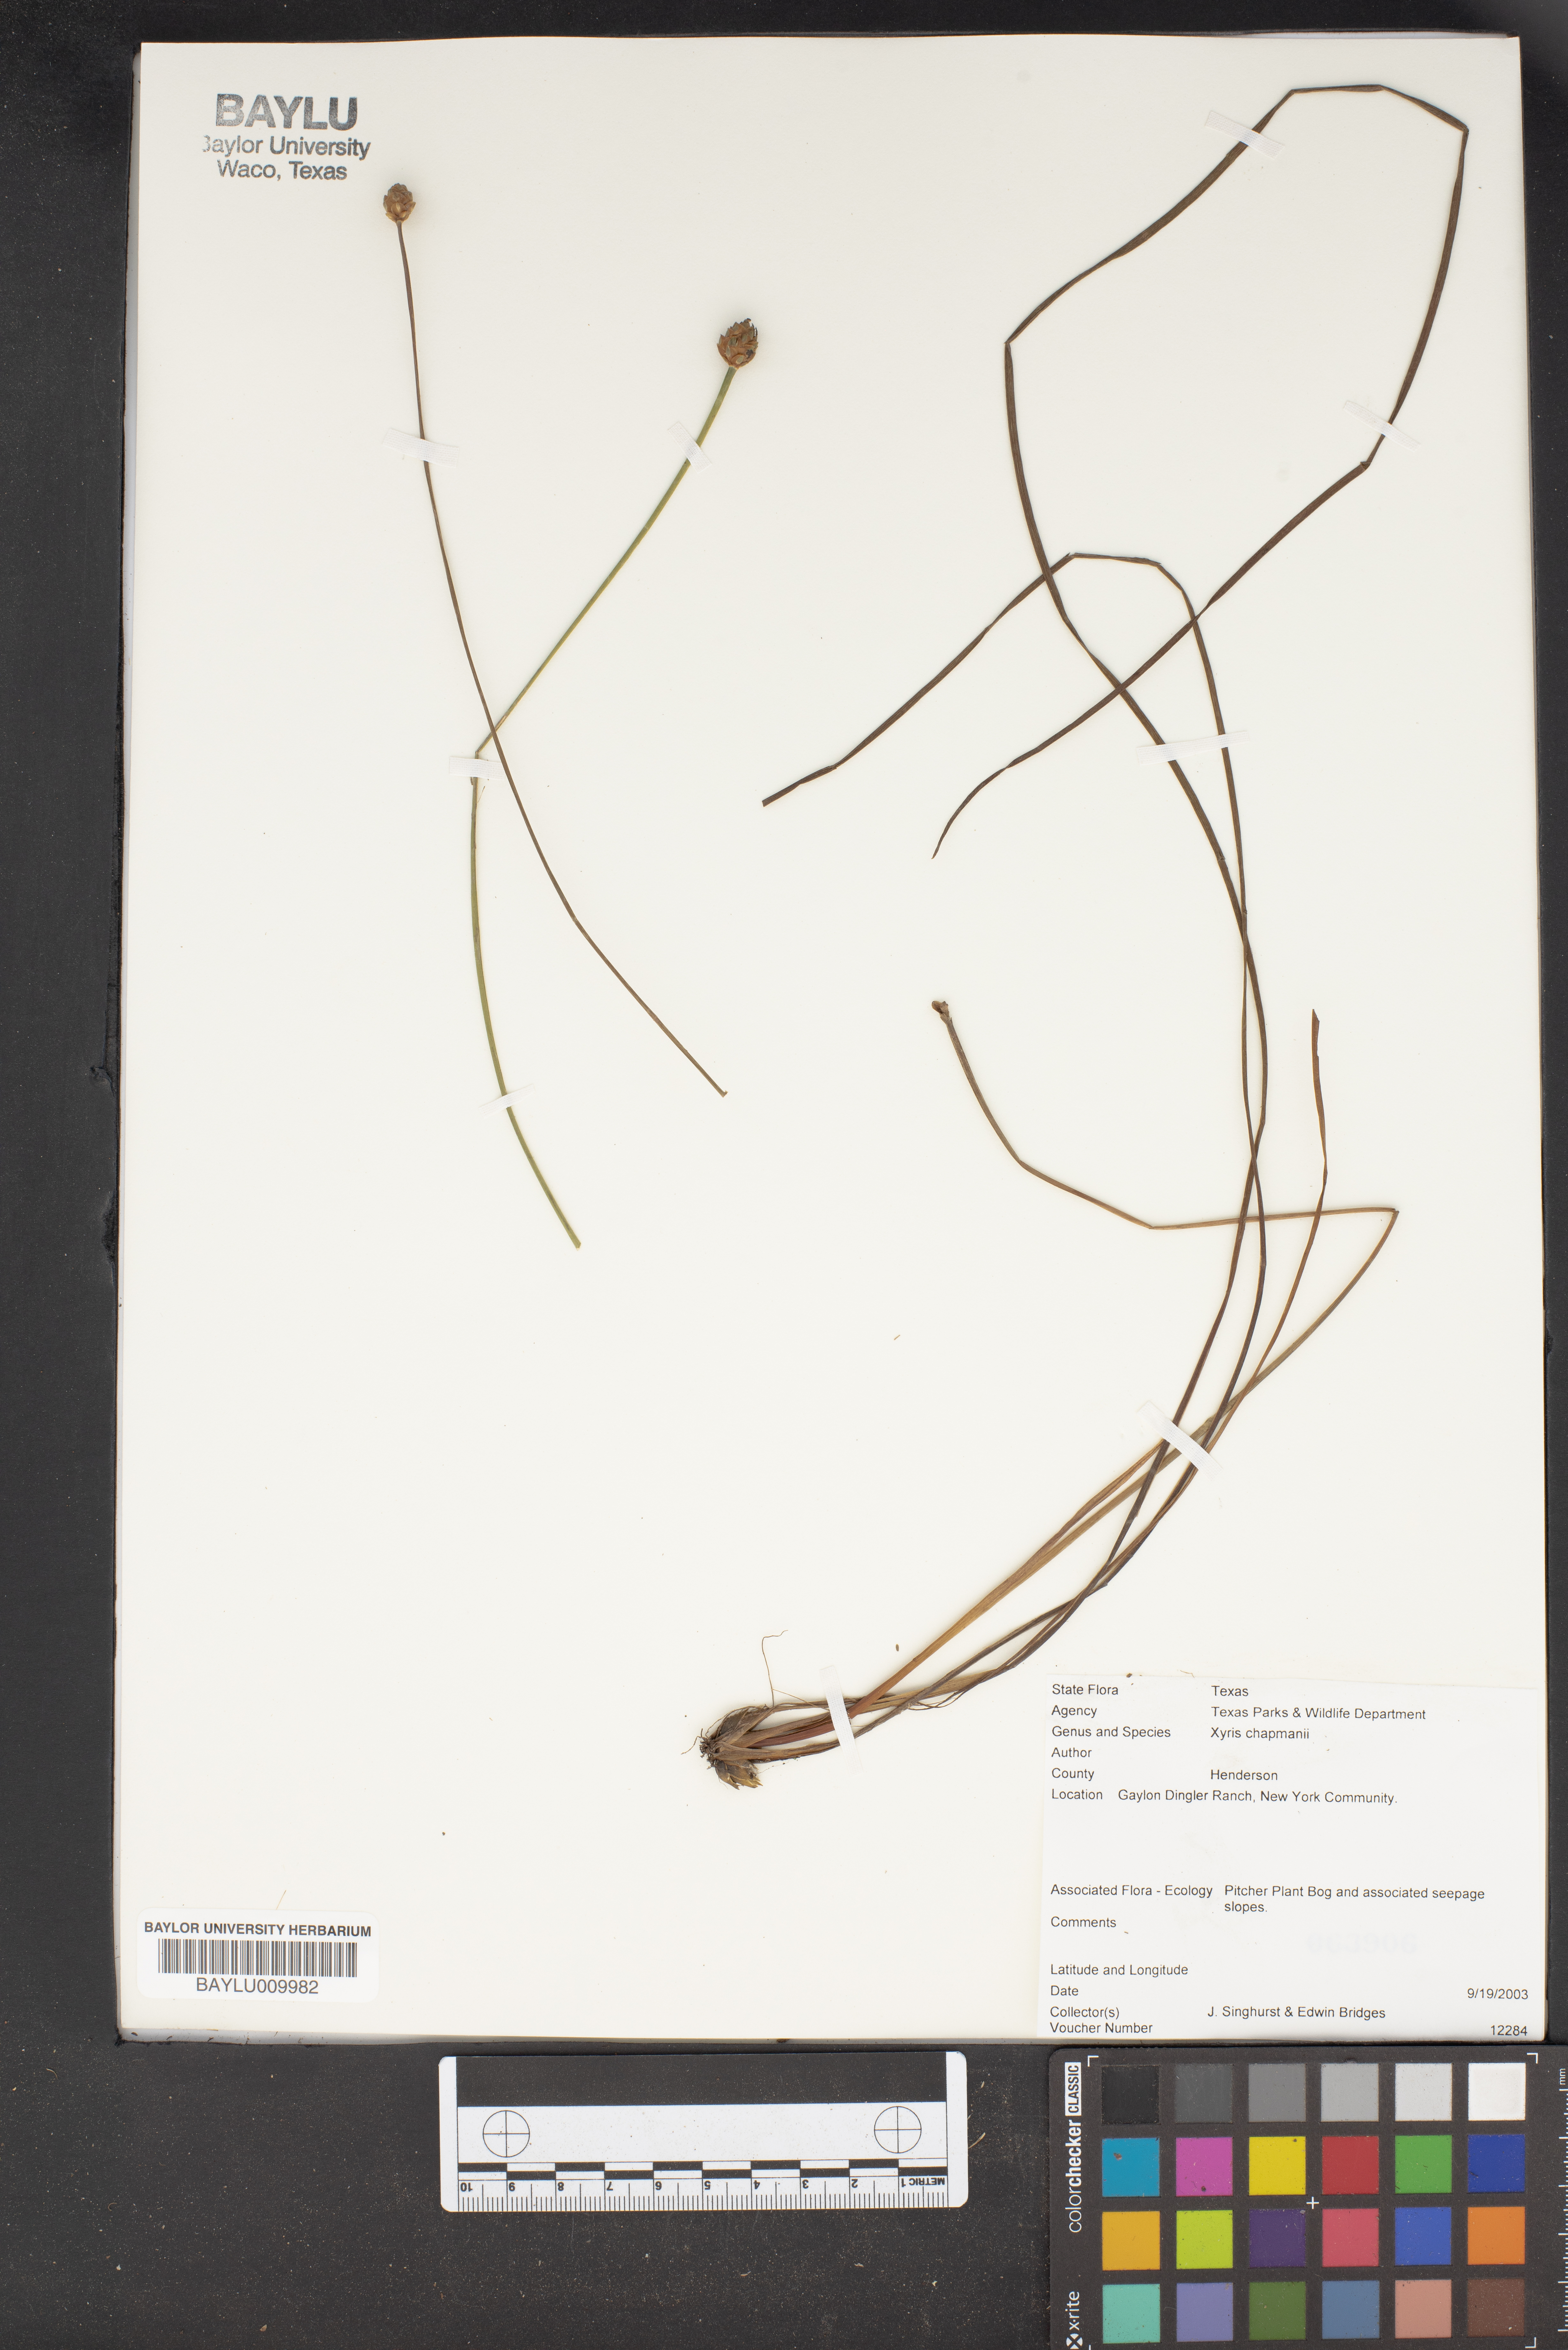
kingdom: Plantae
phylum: Tracheophyta
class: Liliopsida
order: Poales
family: Xyridaceae
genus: Xyris
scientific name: Xyris chapmanii
